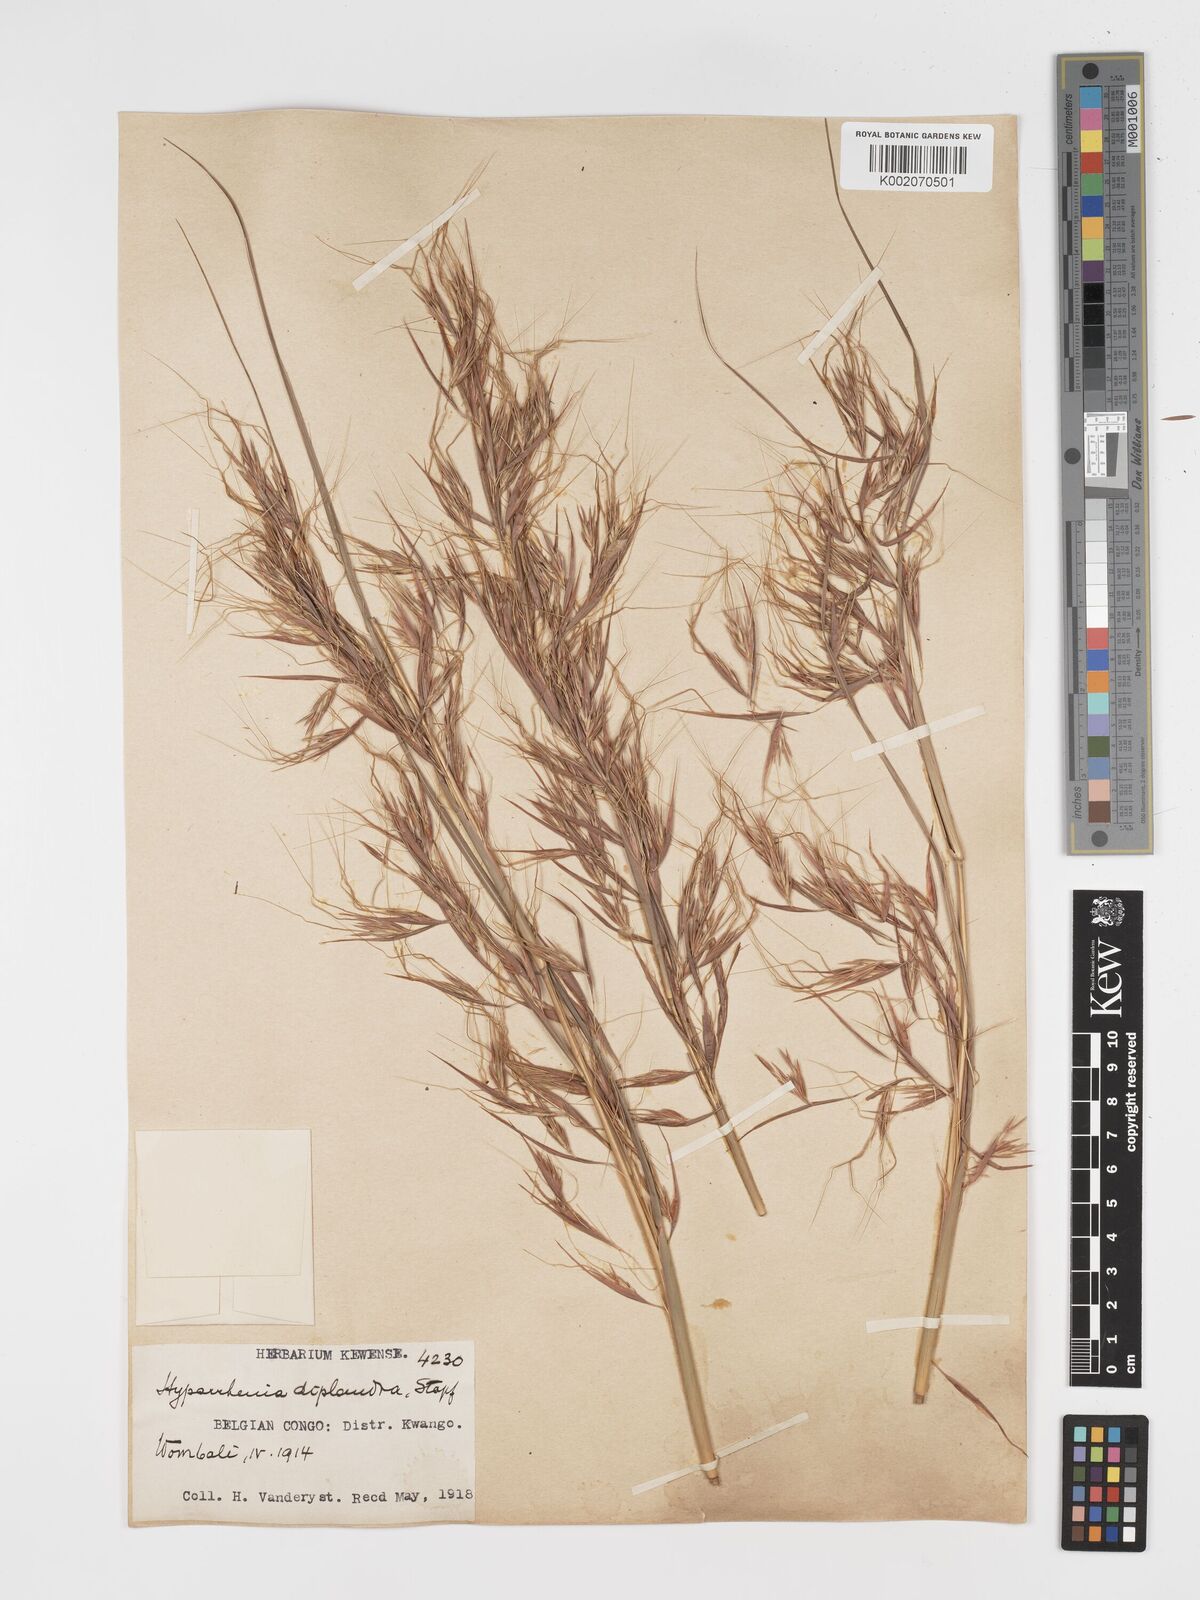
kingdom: Plantae
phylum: Tracheophyta
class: Liliopsida
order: Poales
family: Poaceae
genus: Hyparrhenia
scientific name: Hyparrhenia diplandra
